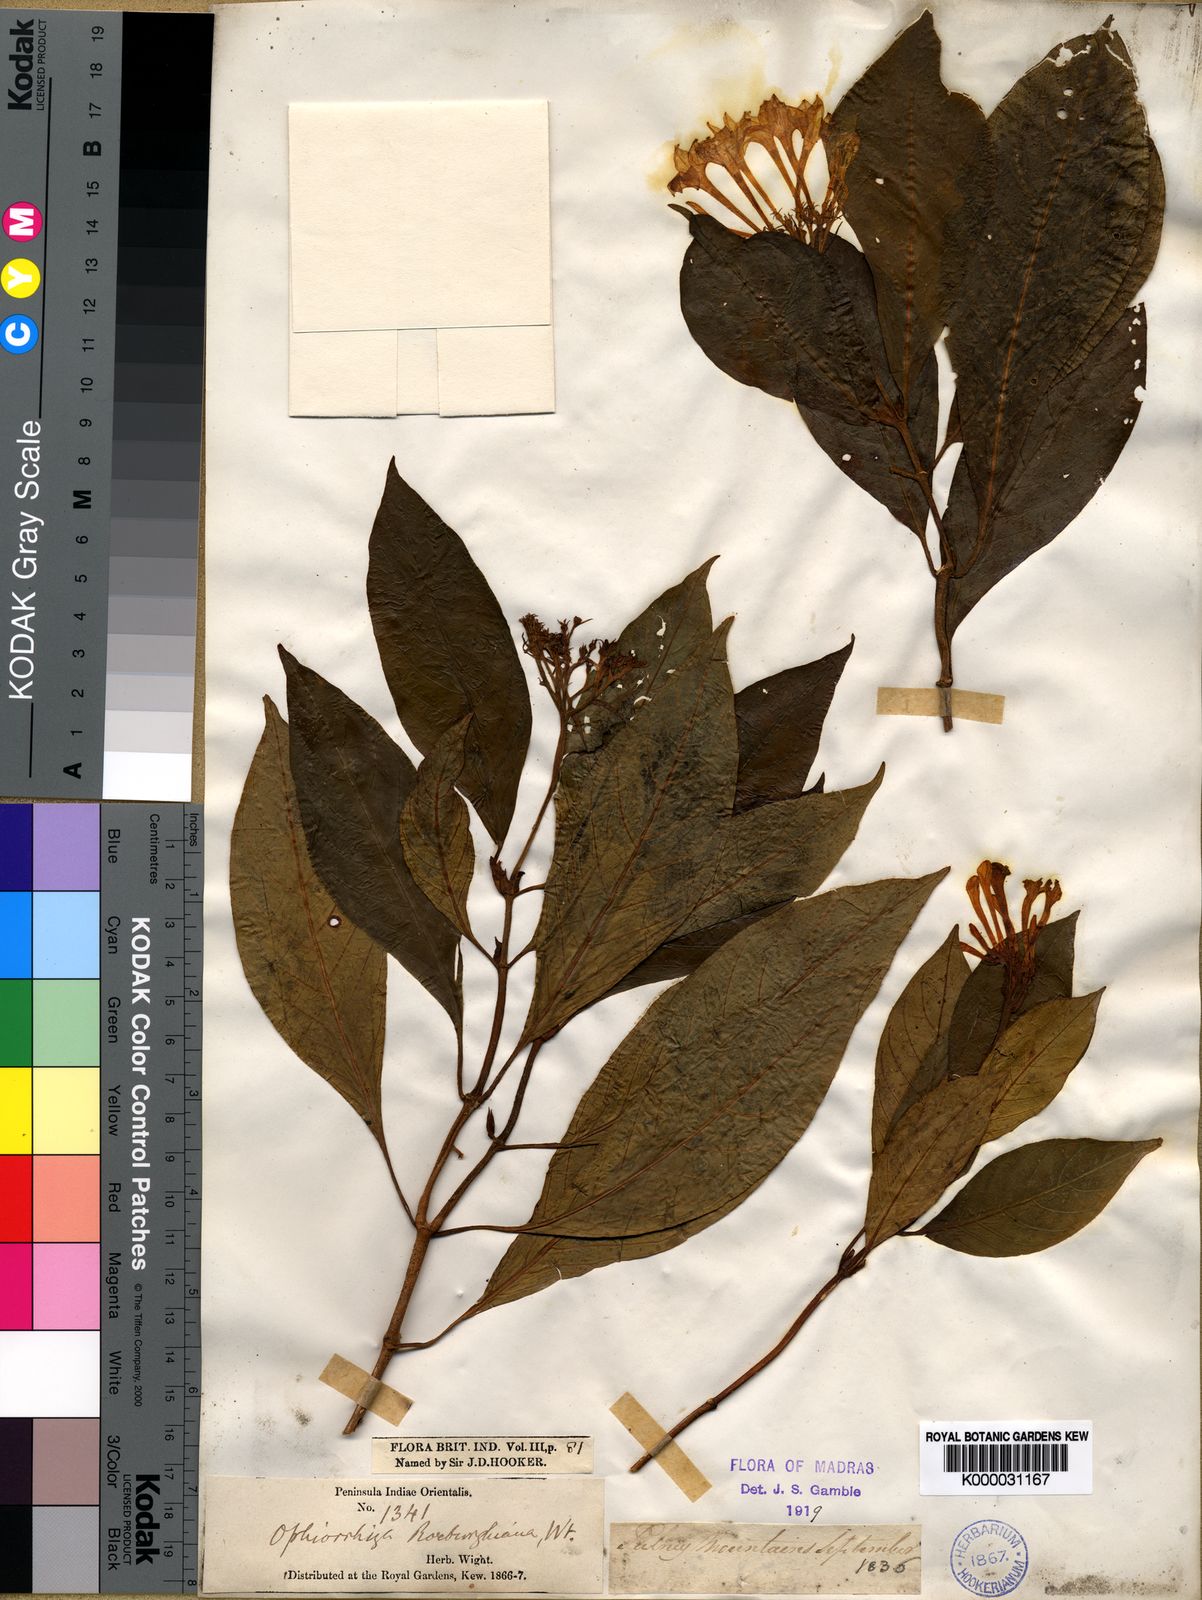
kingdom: Plantae
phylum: Tracheophyta
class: Magnoliopsida
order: Gentianales
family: Rubiaceae
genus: Ophiorrhiza
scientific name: Ophiorrhiza
